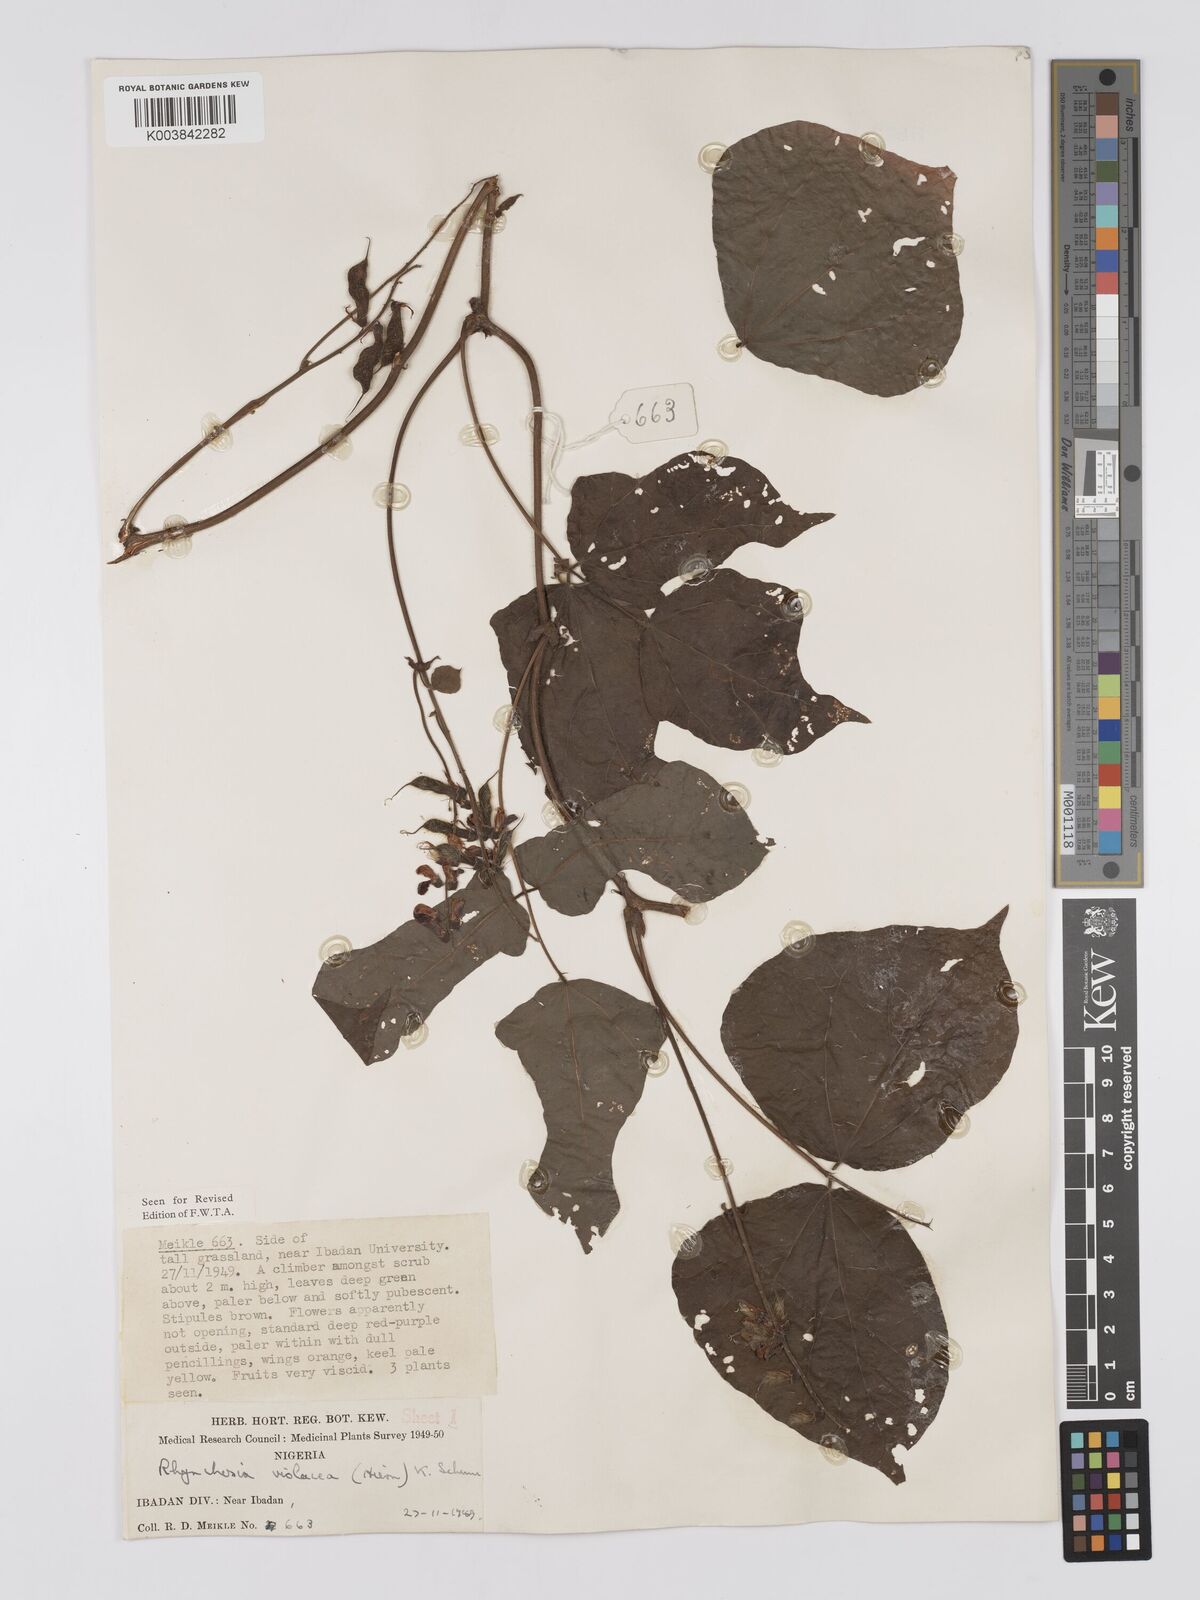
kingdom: Plantae
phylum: Tracheophyta
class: Magnoliopsida
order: Fabales
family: Fabaceae
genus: Rhynchosia
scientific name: Rhynchosia viscosa
